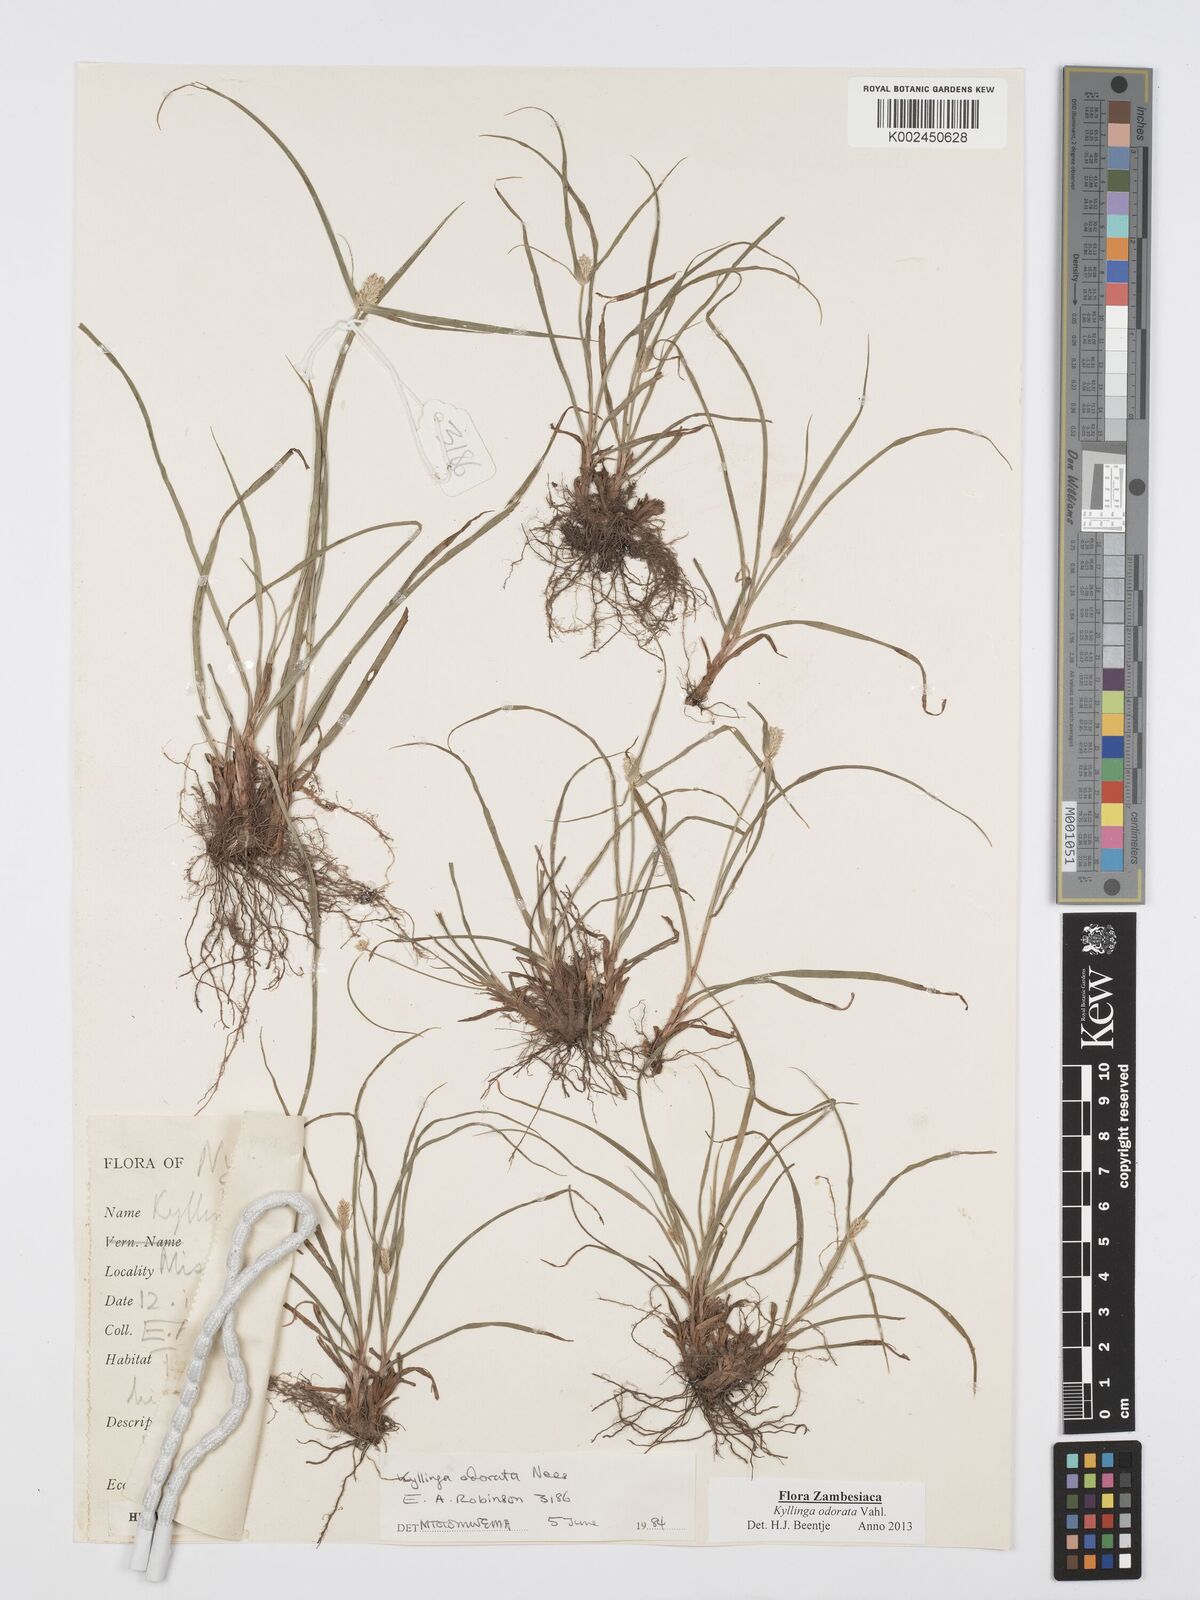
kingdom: Plantae
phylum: Tracheophyta
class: Liliopsida
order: Poales
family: Cyperaceae
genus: Cyperus
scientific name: Cyperus
